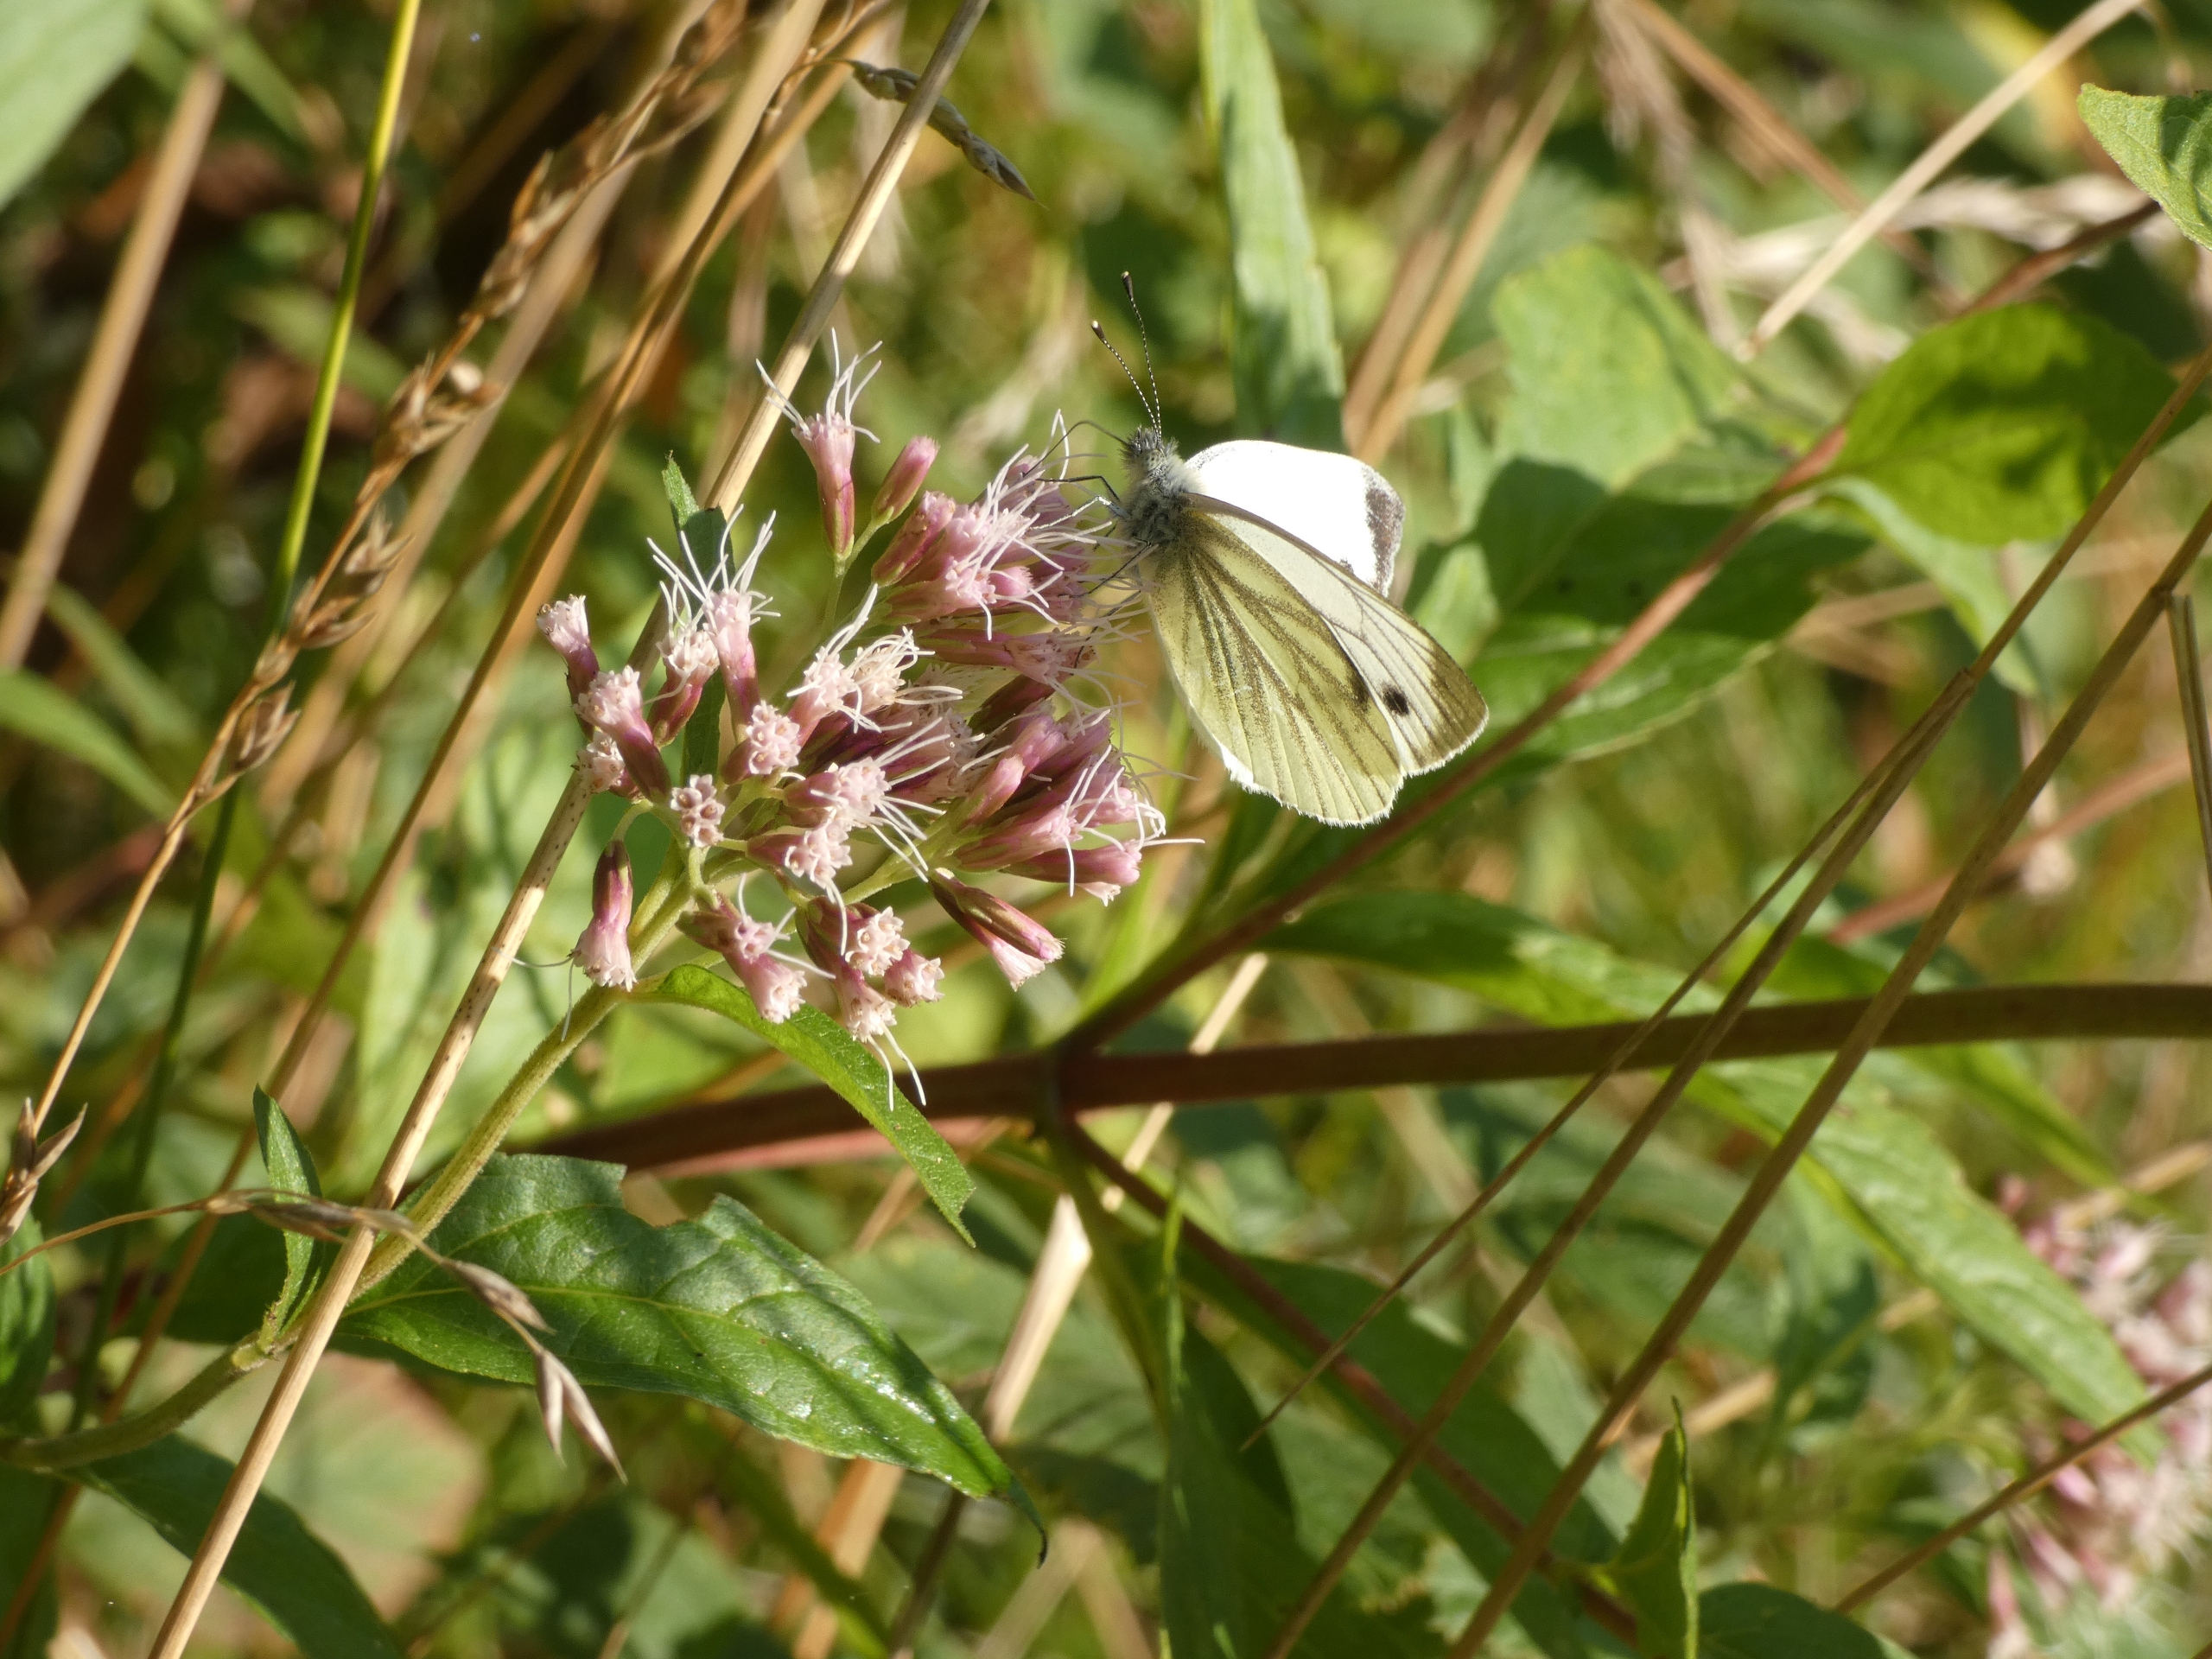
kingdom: Animalia
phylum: Arthropoda
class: Insecta
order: Lepidoptera
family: Pieridae
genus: Pieris
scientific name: Pieris napi
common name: Grønåret kålsommerfugl
